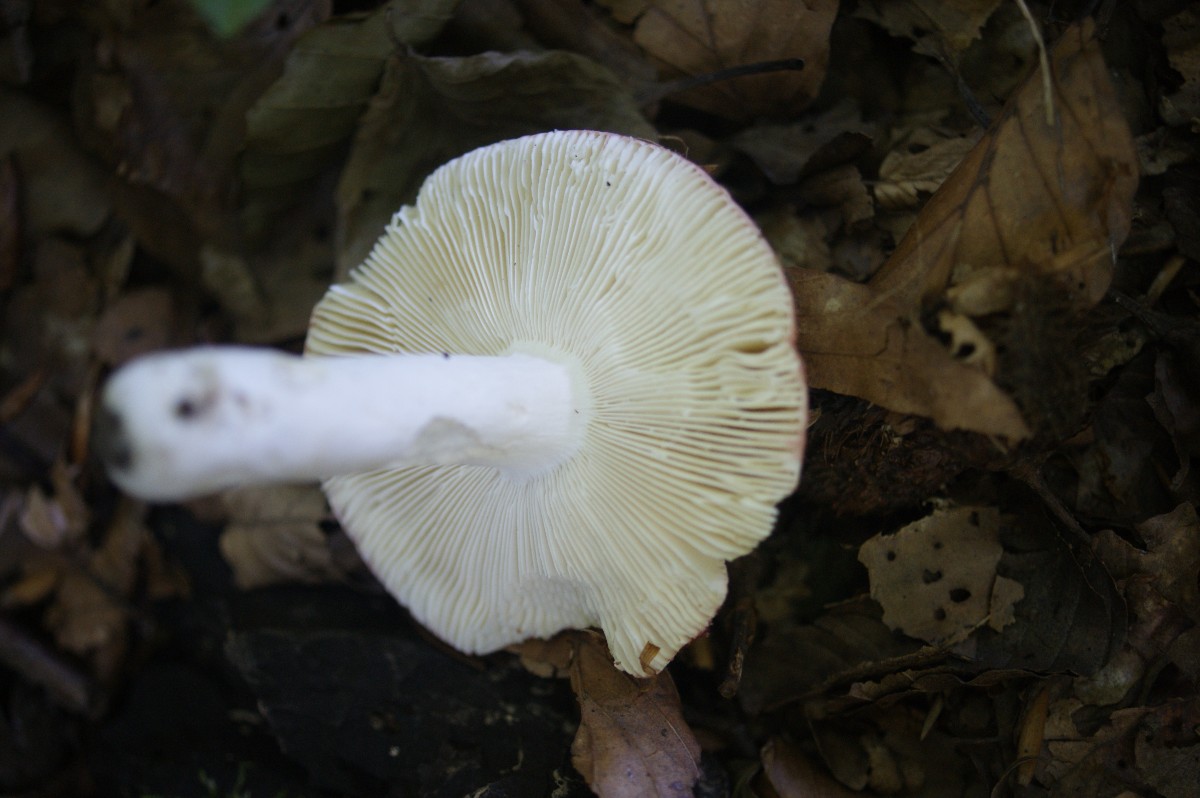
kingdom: Fungi
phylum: Basidiomycota
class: Agaricomycetes
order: Russulales
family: Russulaceae
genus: Russula
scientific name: Russula aurora
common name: rosa skørhat
